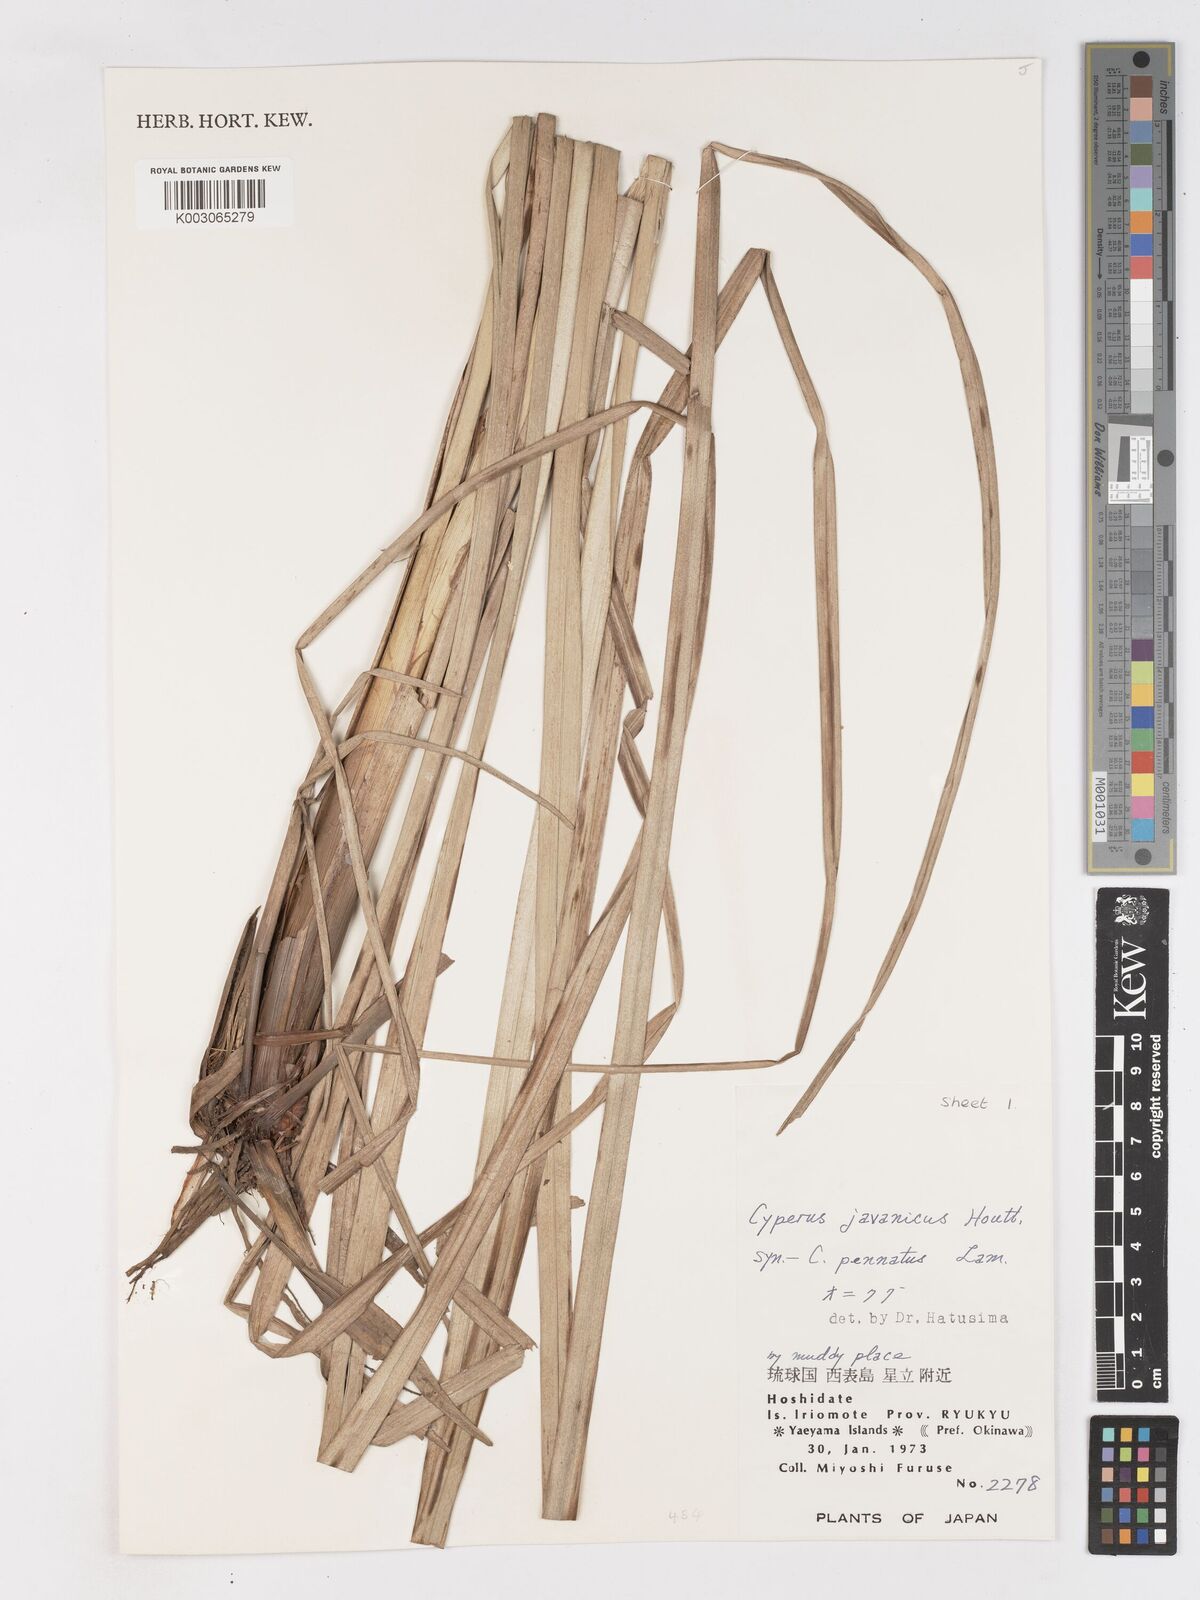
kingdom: Plantae
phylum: Tracheophyta
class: Liliopsida
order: Poales
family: Cyperaceae
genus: Cyperus
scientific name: Cyperus javanicus
